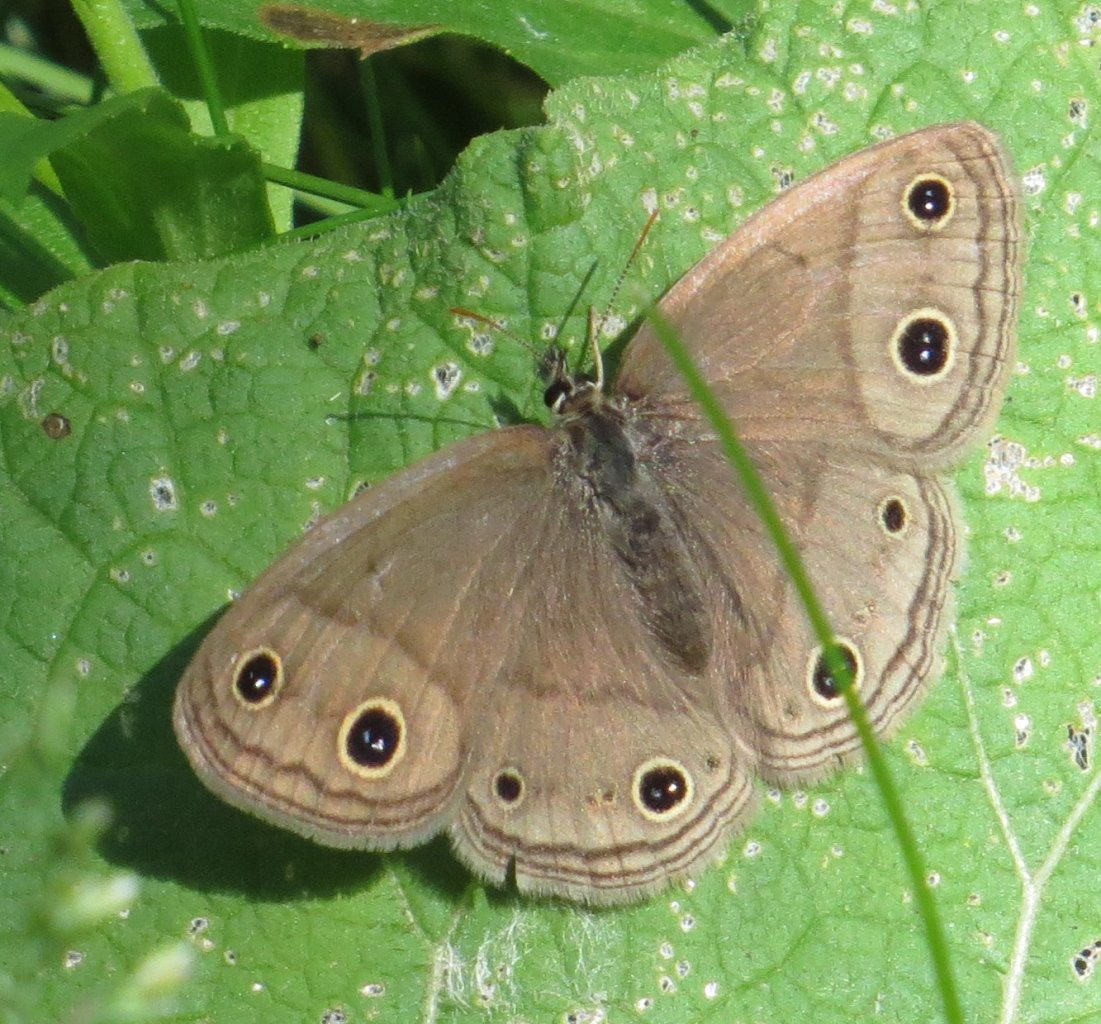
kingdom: Animalia
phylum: Arthropoda
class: Insecta
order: Lepidoptera
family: Nymphalidae
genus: Euptychia
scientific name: Euptychia cymela
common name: Little Wood Satyr
